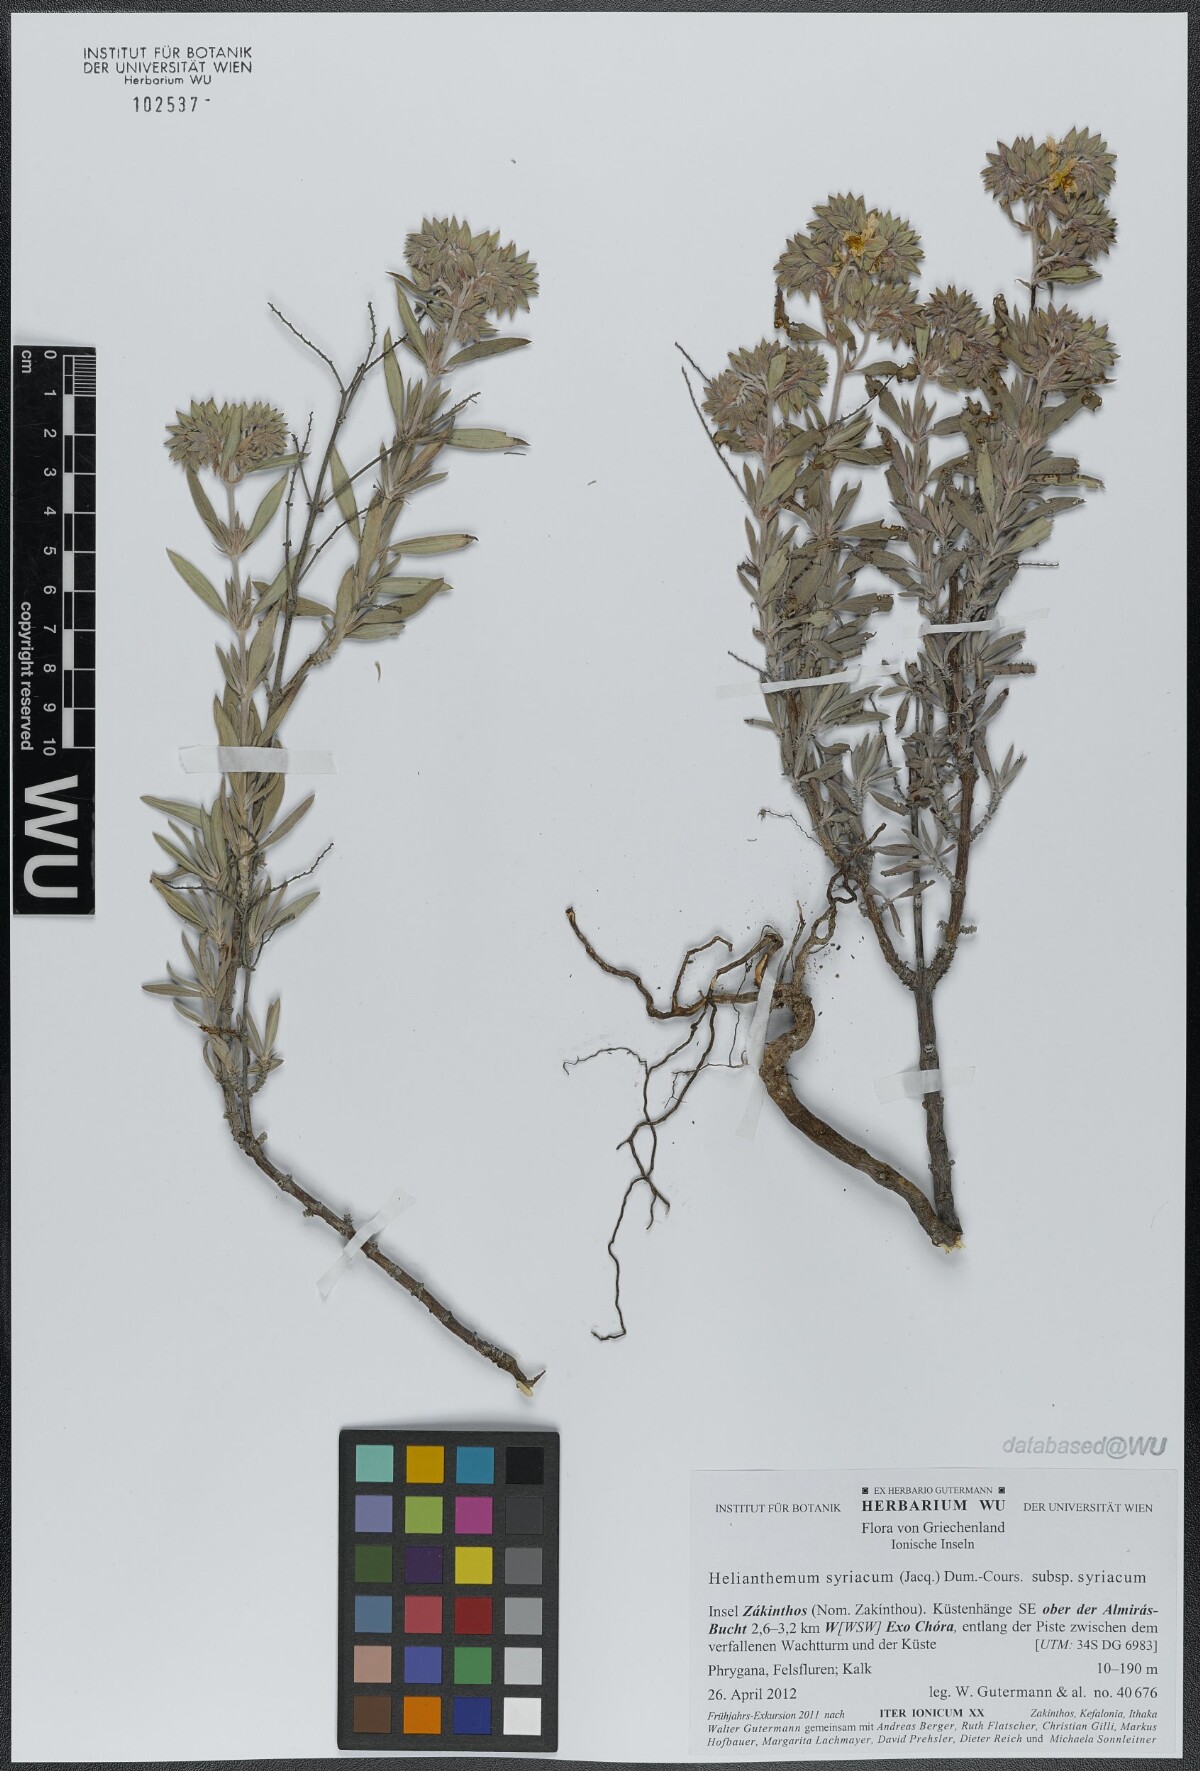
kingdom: Plantae
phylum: Tracheophyta
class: Magnoliopsida
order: Malvales
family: Cistaceae
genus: Helianthemum
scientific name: Helianthemum syriacum
